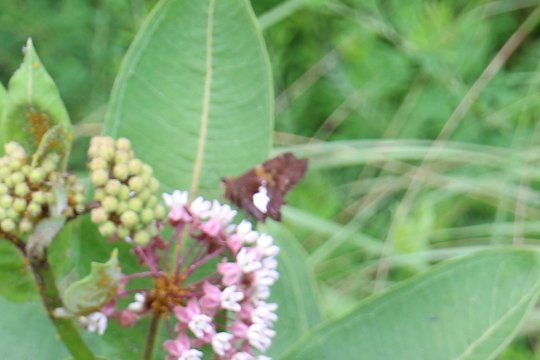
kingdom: Animalia
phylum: Arthropoda
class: Insecta
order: Lepidoptera
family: Hesperiidae
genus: Epargyreus
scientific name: Epargyreus clarus
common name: Silver-spotted Skipper
